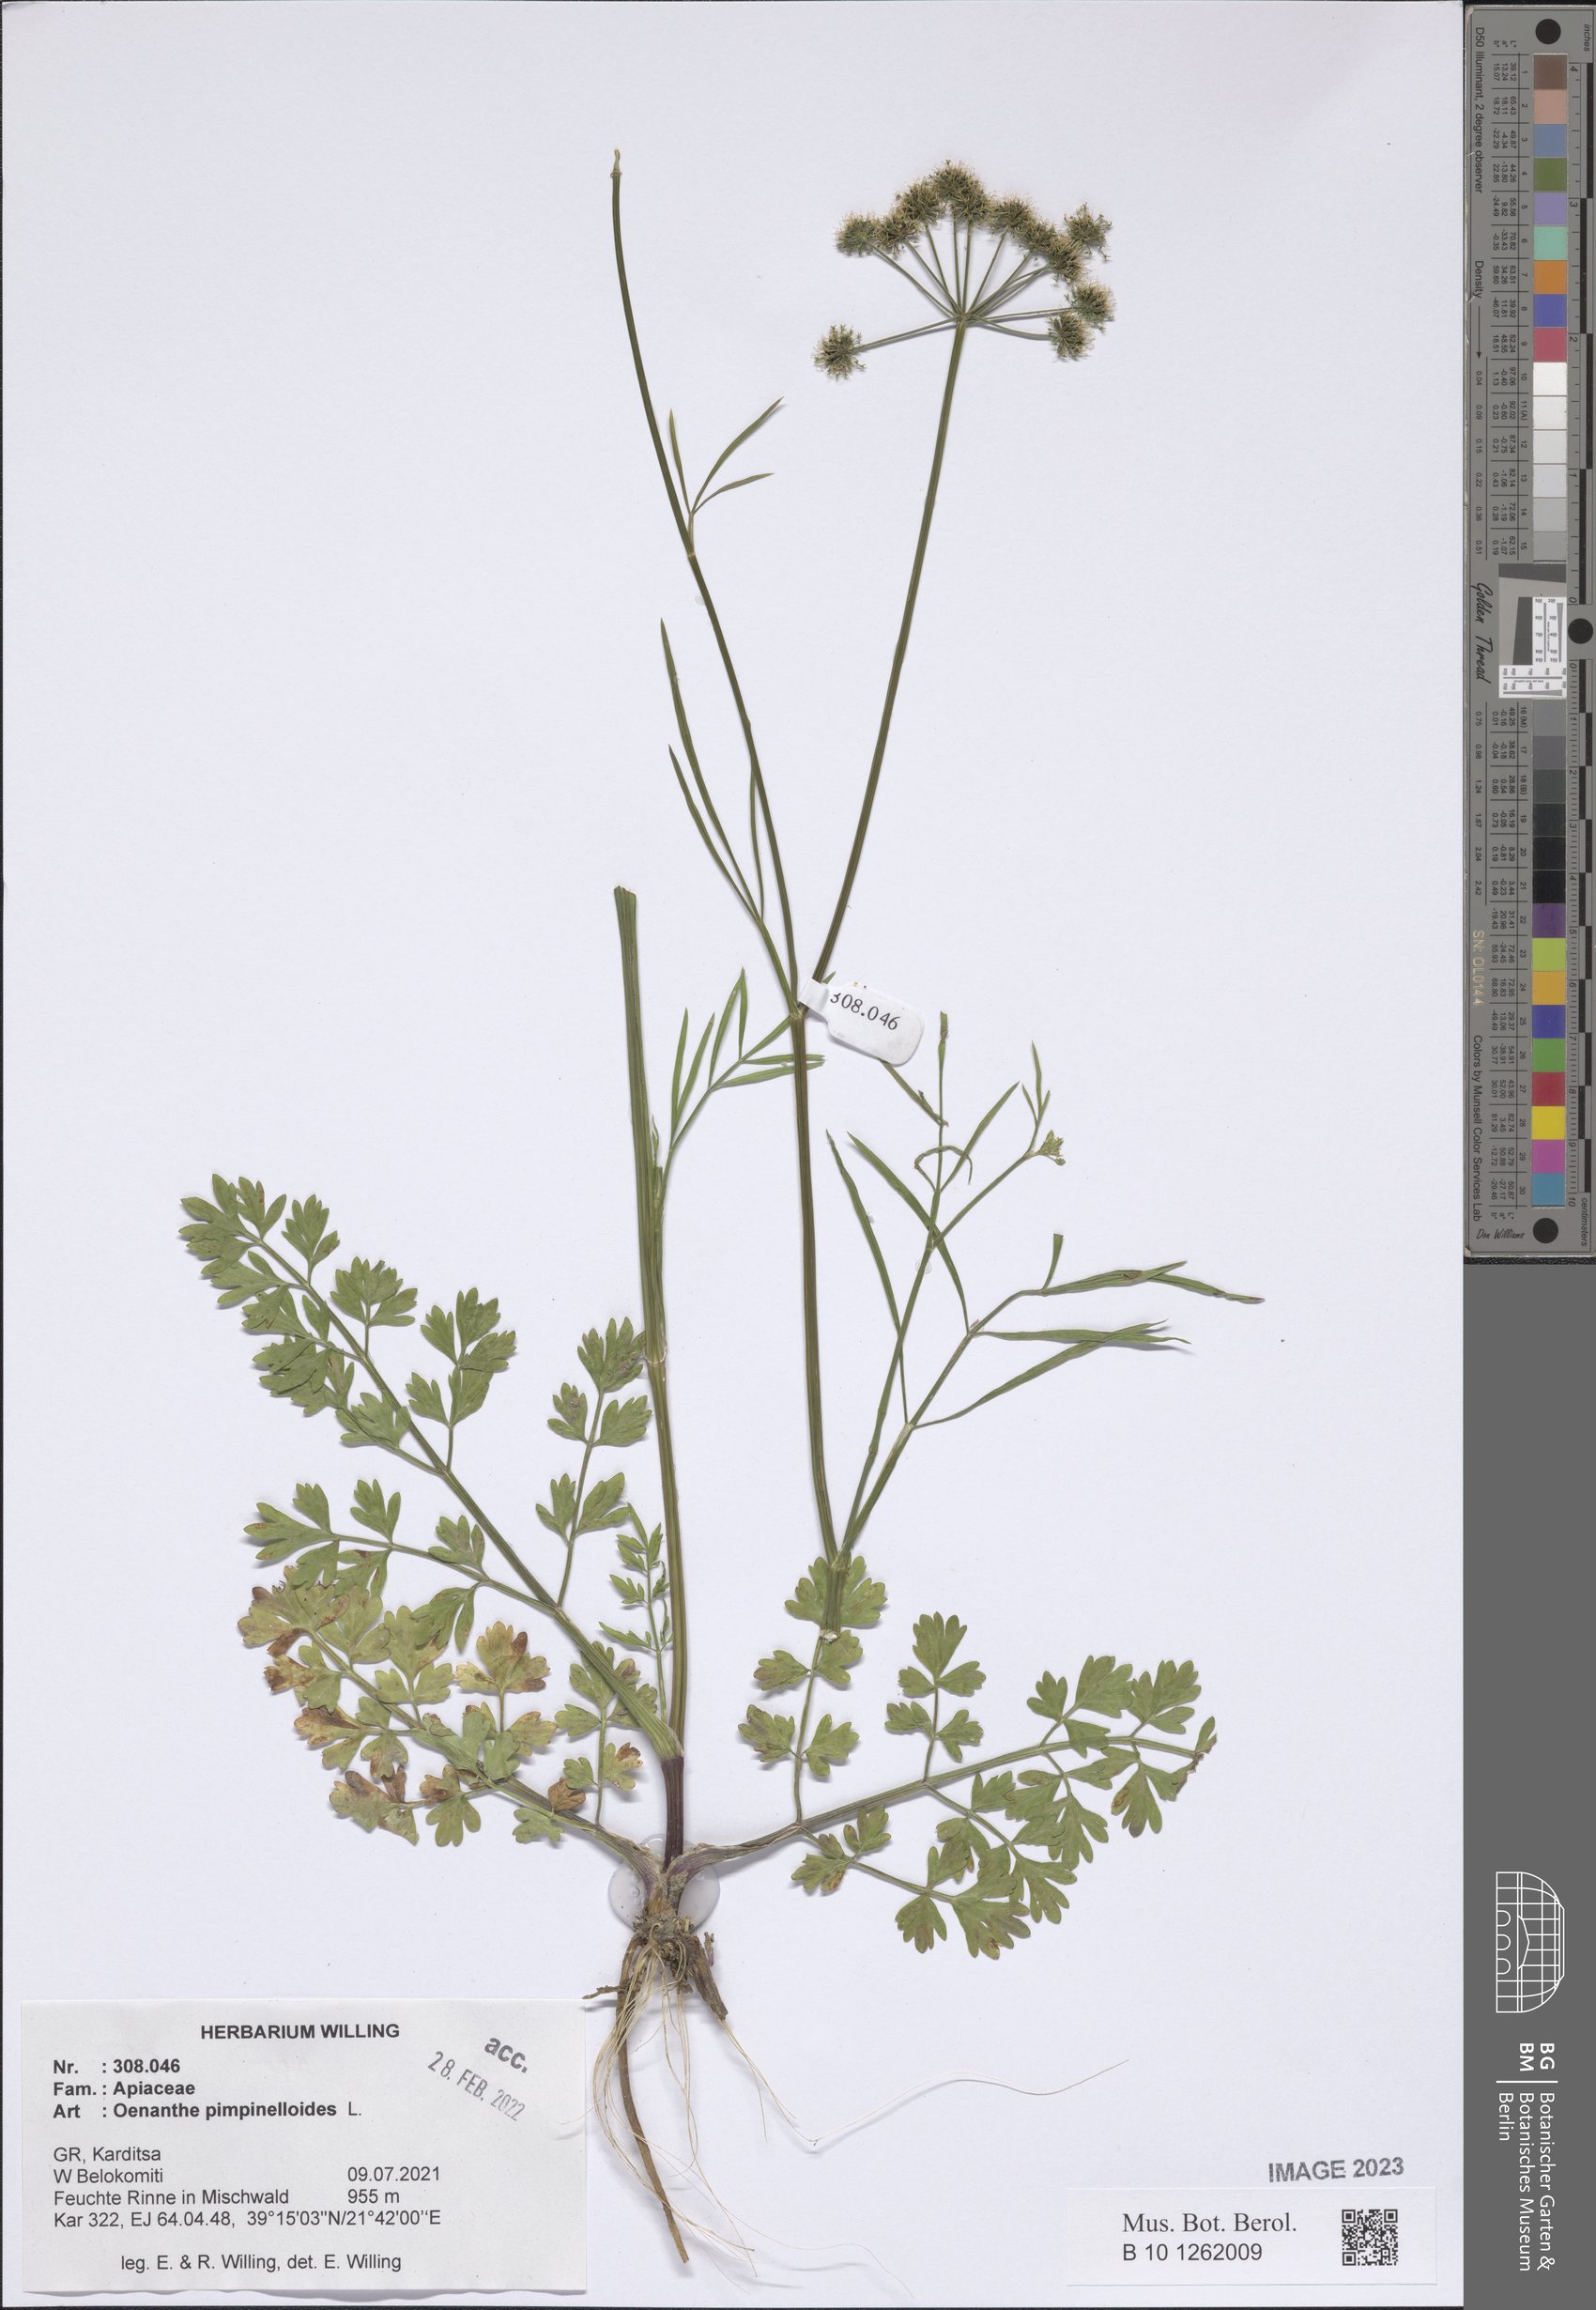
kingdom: Plantae
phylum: Tracheophyta
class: Magnoliopsida
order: Apiales
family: Apiaceae
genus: Oenanthe
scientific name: Oenanthe pimpinelloides
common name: Corky-fruited water-dropwort
